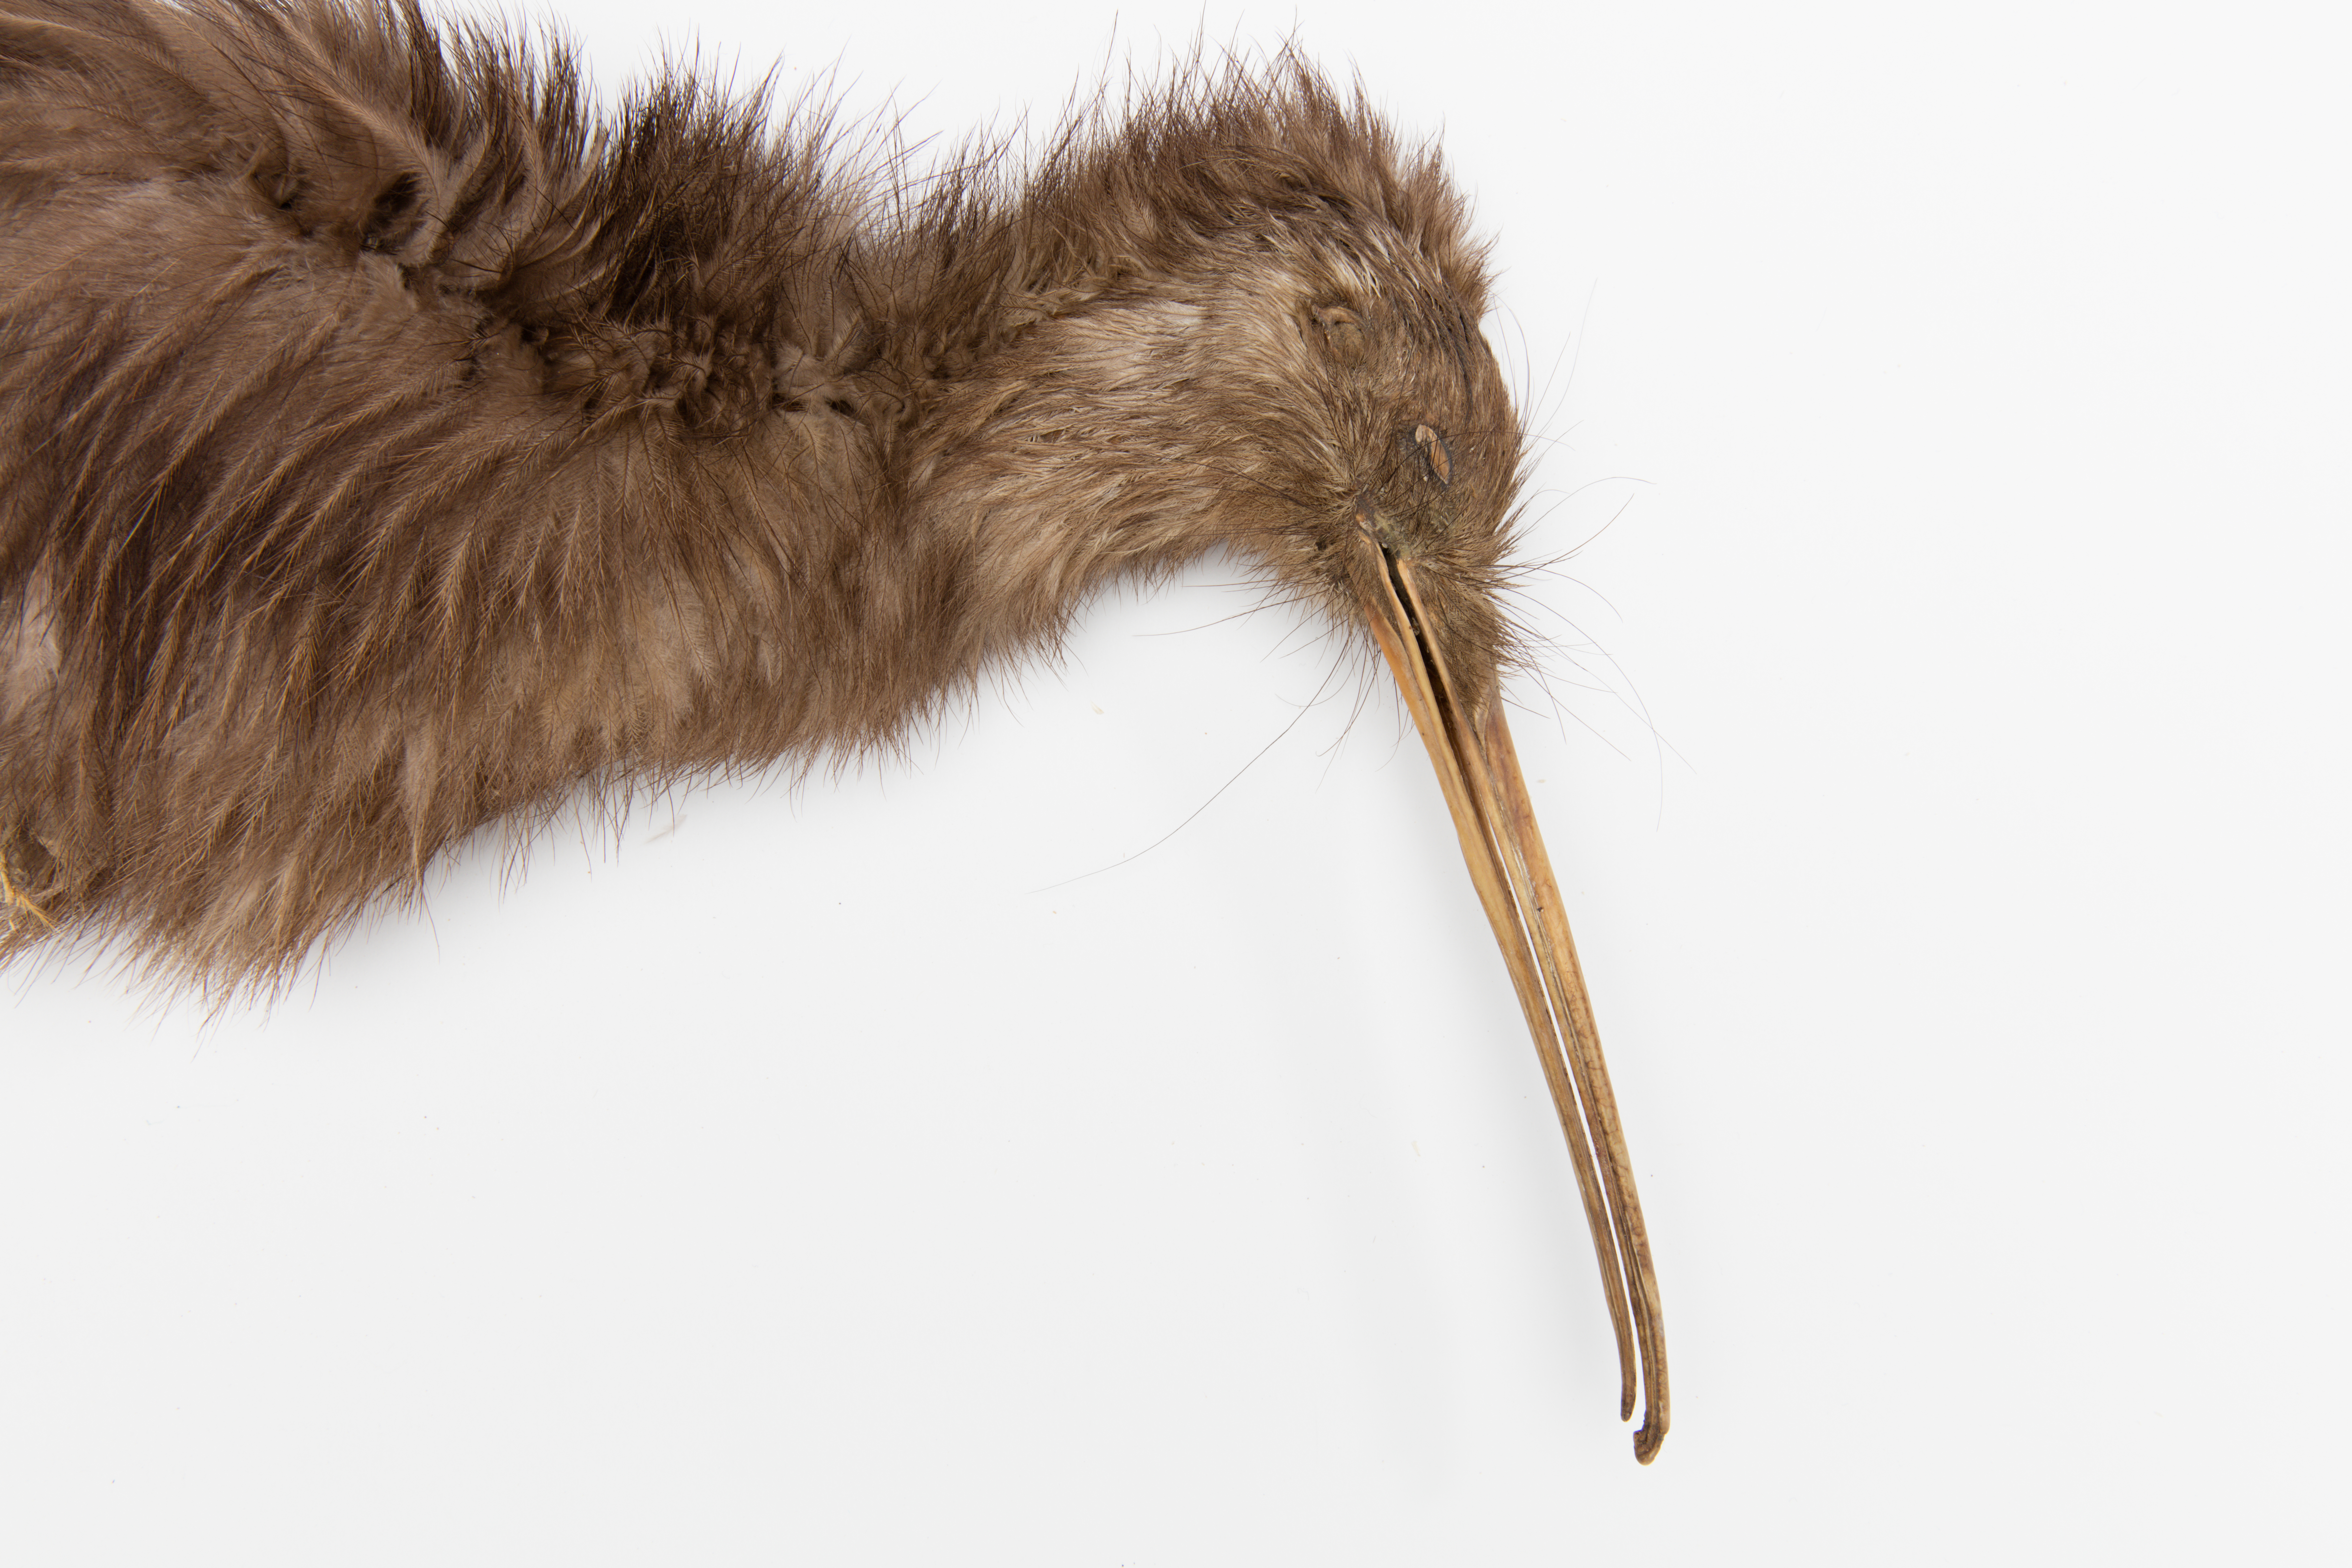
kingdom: Animalia
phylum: Chordata
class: Aves
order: Apterygiformes
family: Apterygidae
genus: Apteryx
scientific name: Apteryx mantelli
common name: North island brown kiwi
